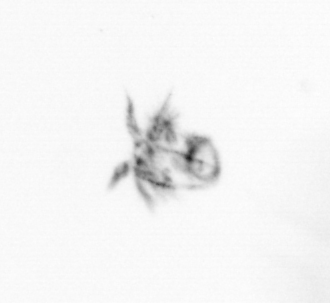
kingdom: Animalia
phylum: Arthropoda
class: Copepoda
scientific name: Copepoda
